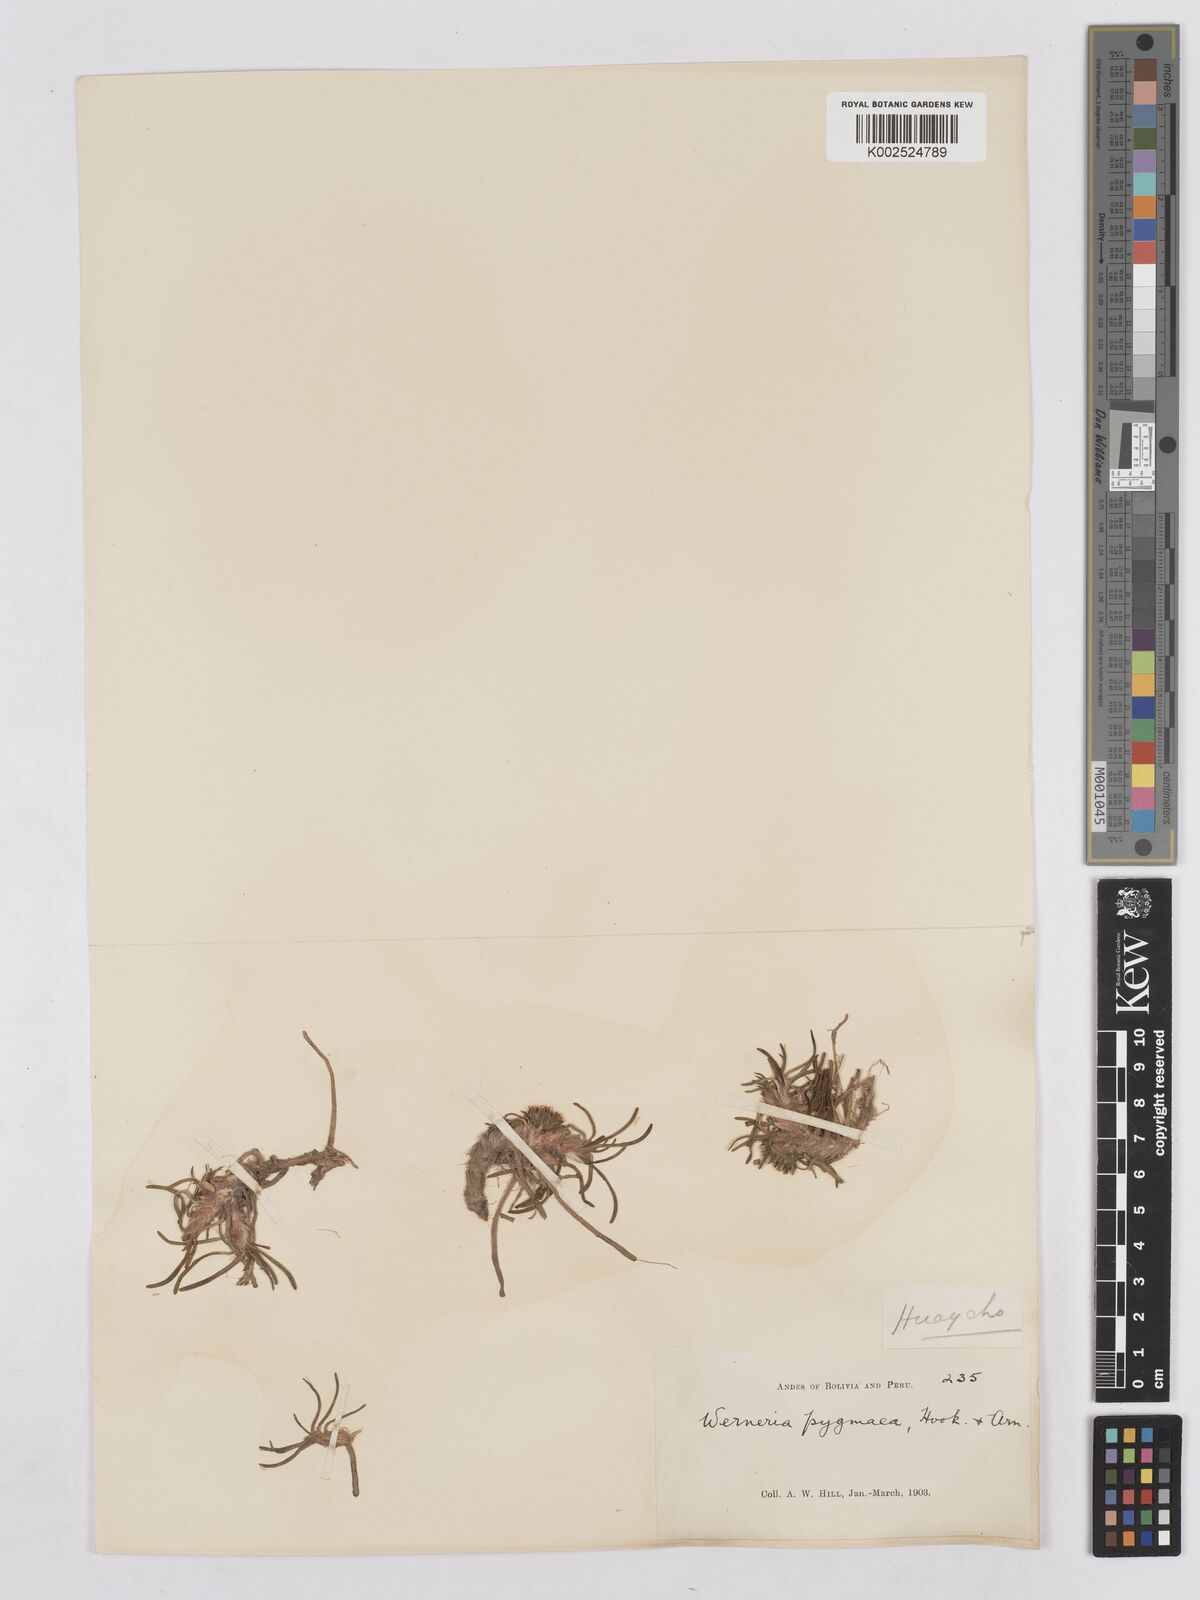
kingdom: Plantae
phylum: Tracheophyta
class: Magnoliopsida
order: Asterales
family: Asteraceae
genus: Rockhausenia
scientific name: Rockhausenia pygmaea
